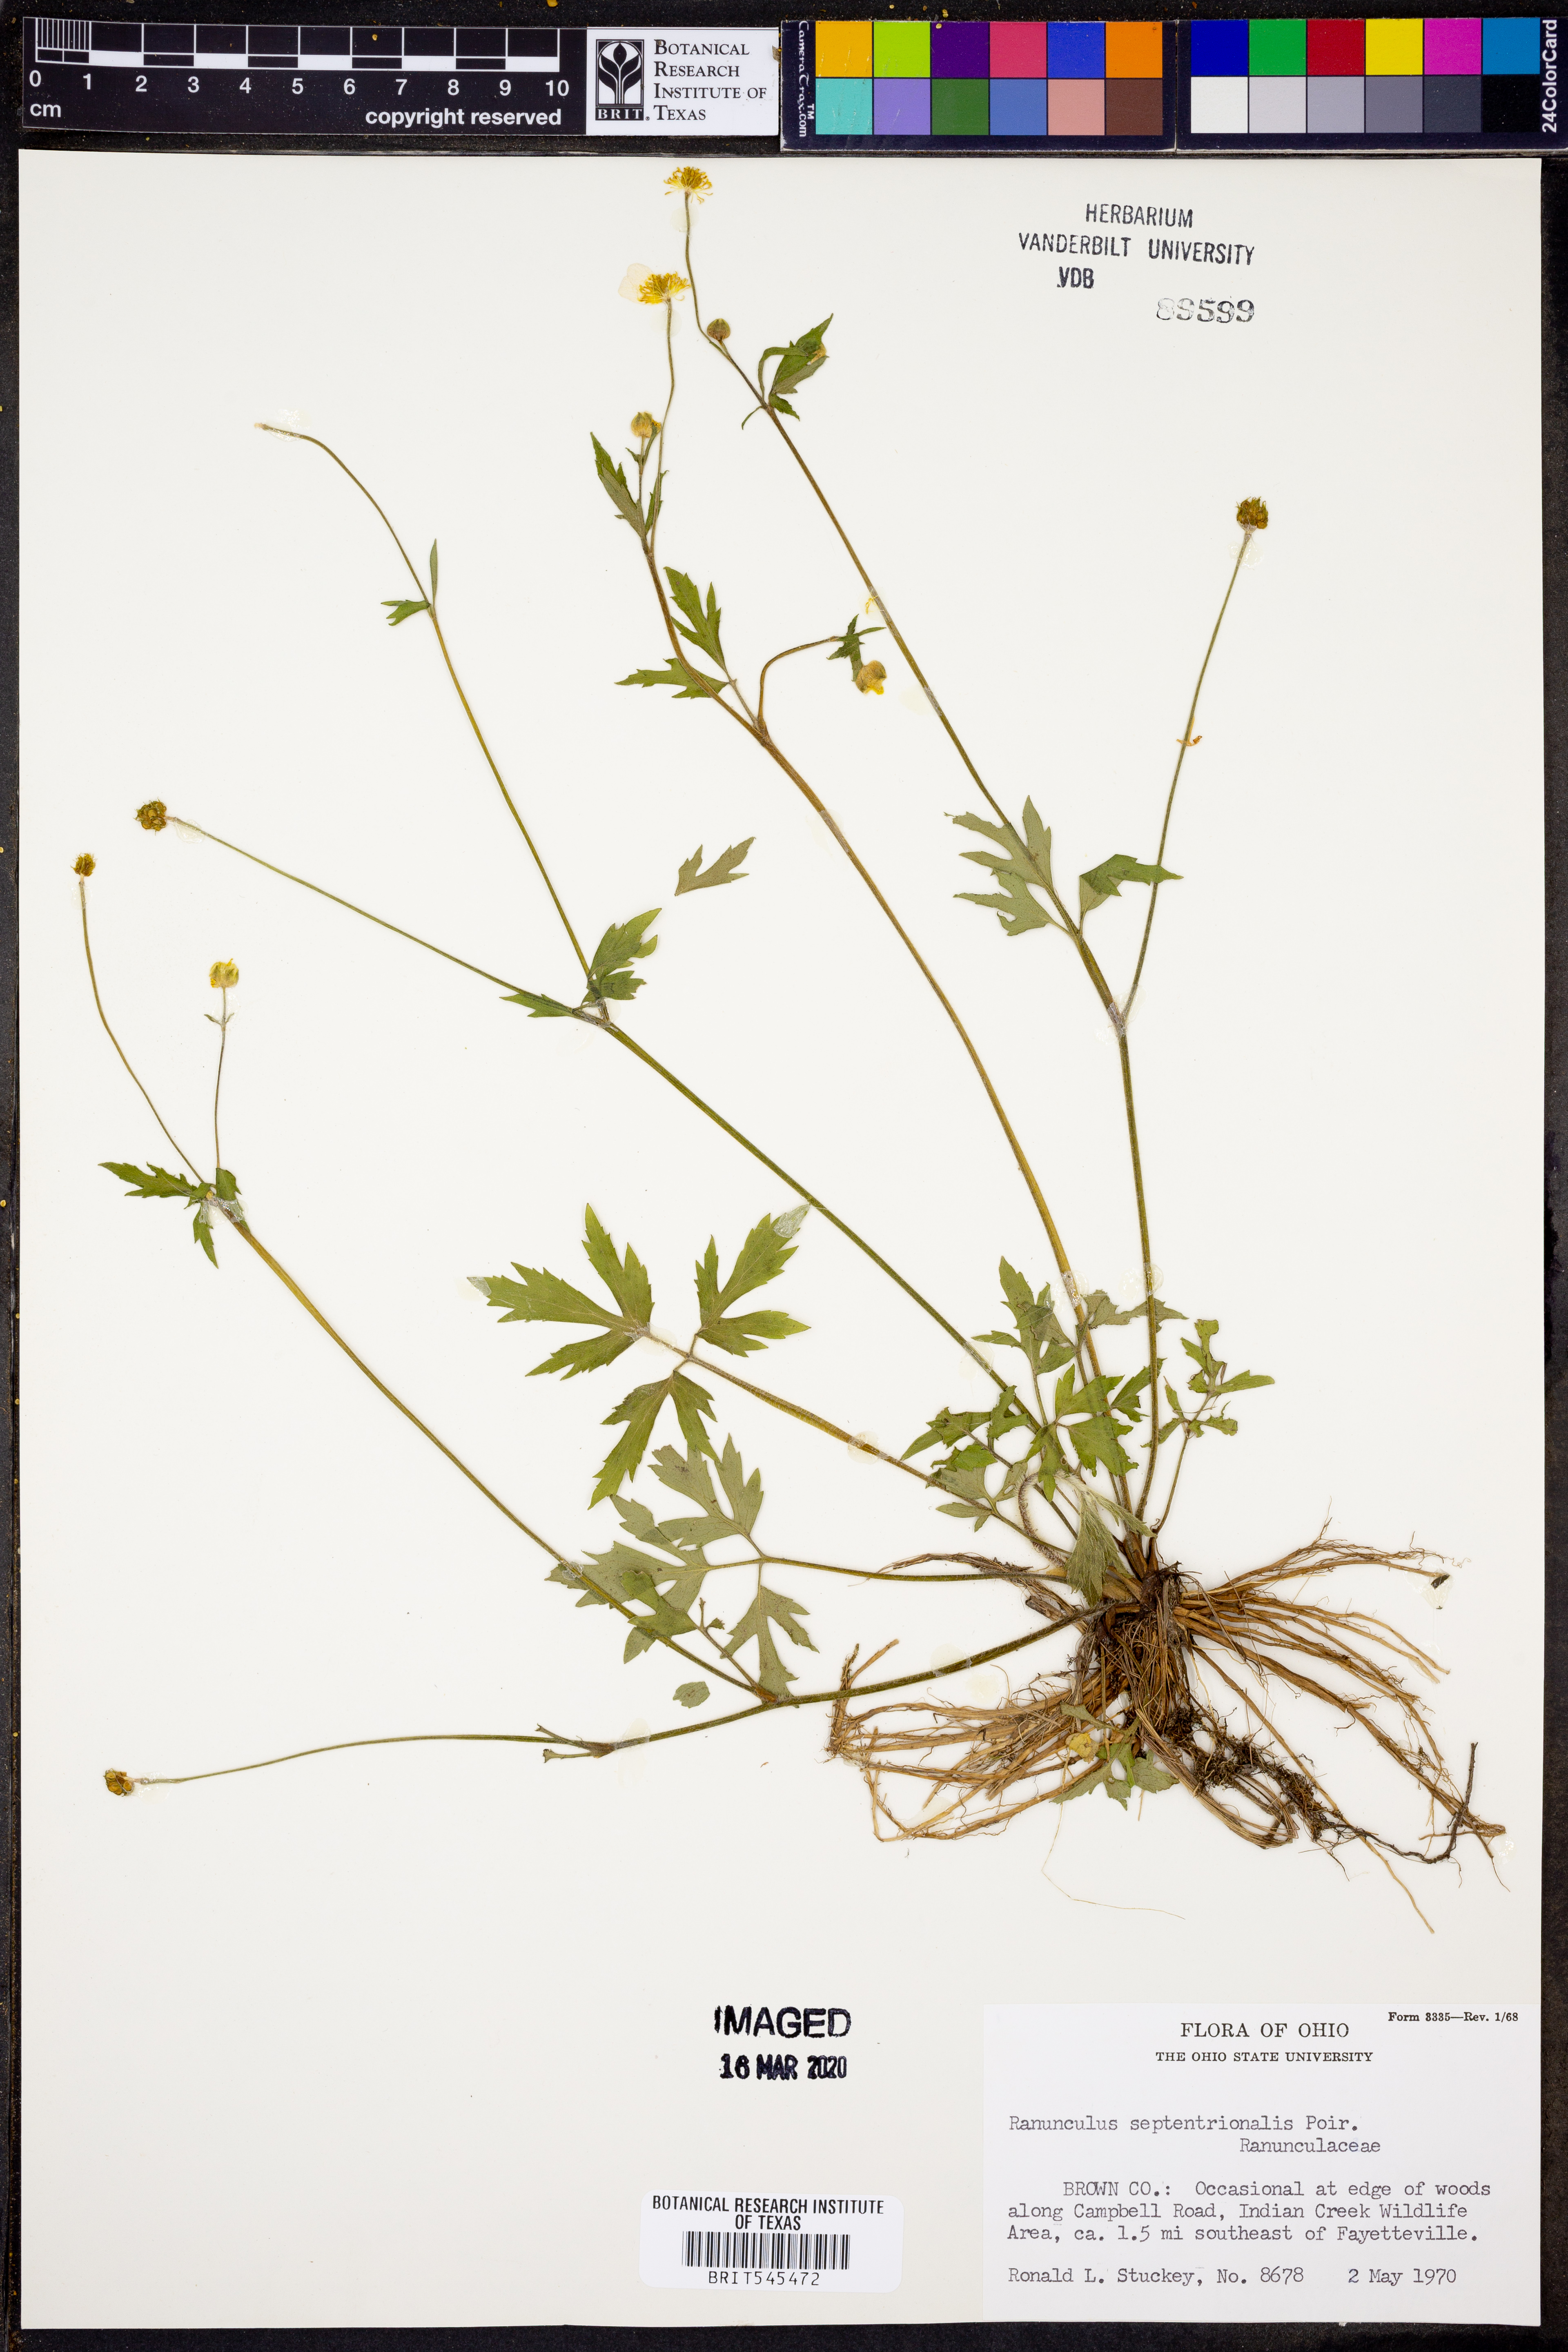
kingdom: Plantae
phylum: Tracheophyta
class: Magnoliopsida
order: Ranunculales
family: Ranunculaceae
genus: Ranunculus
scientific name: Ranunculus hispidus
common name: Bristly buttercup
